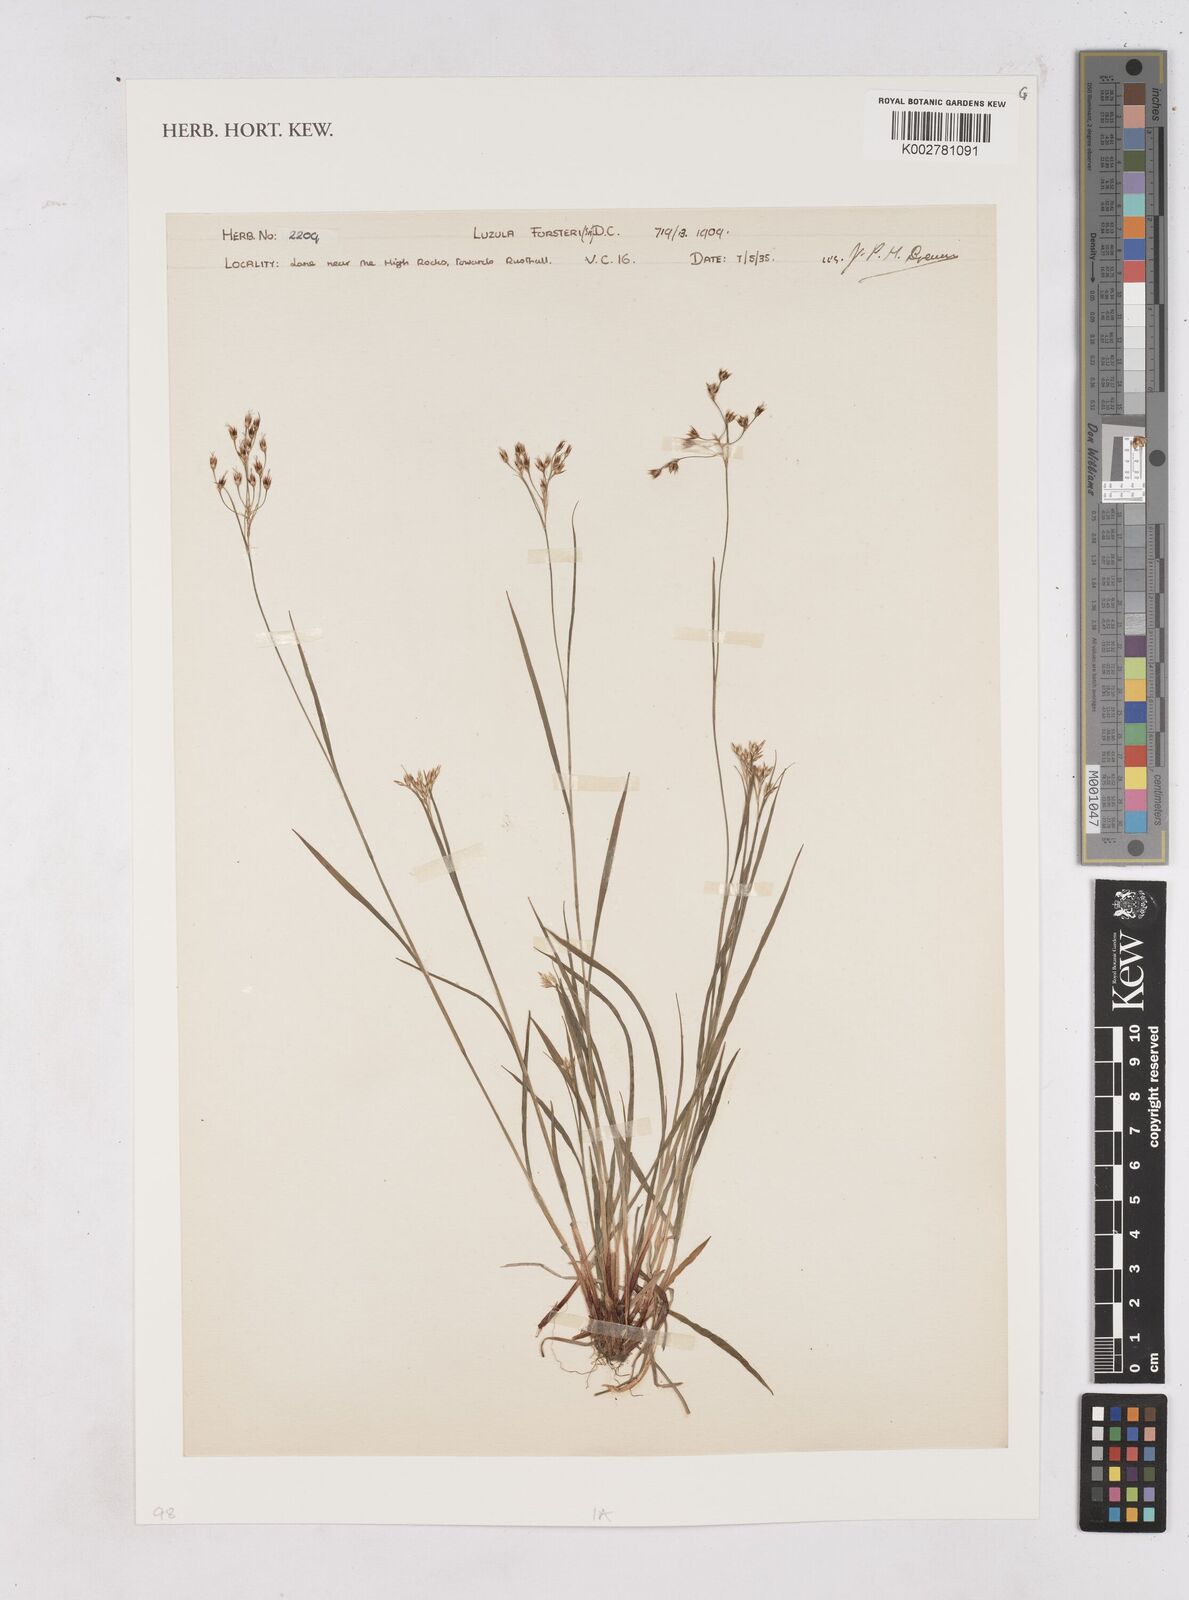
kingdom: Plantae
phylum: Tracheophyta
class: Liliopsida
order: Poales
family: Juncaceae
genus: Luzula
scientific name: Luzula forsteri
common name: Southern wood-rush
